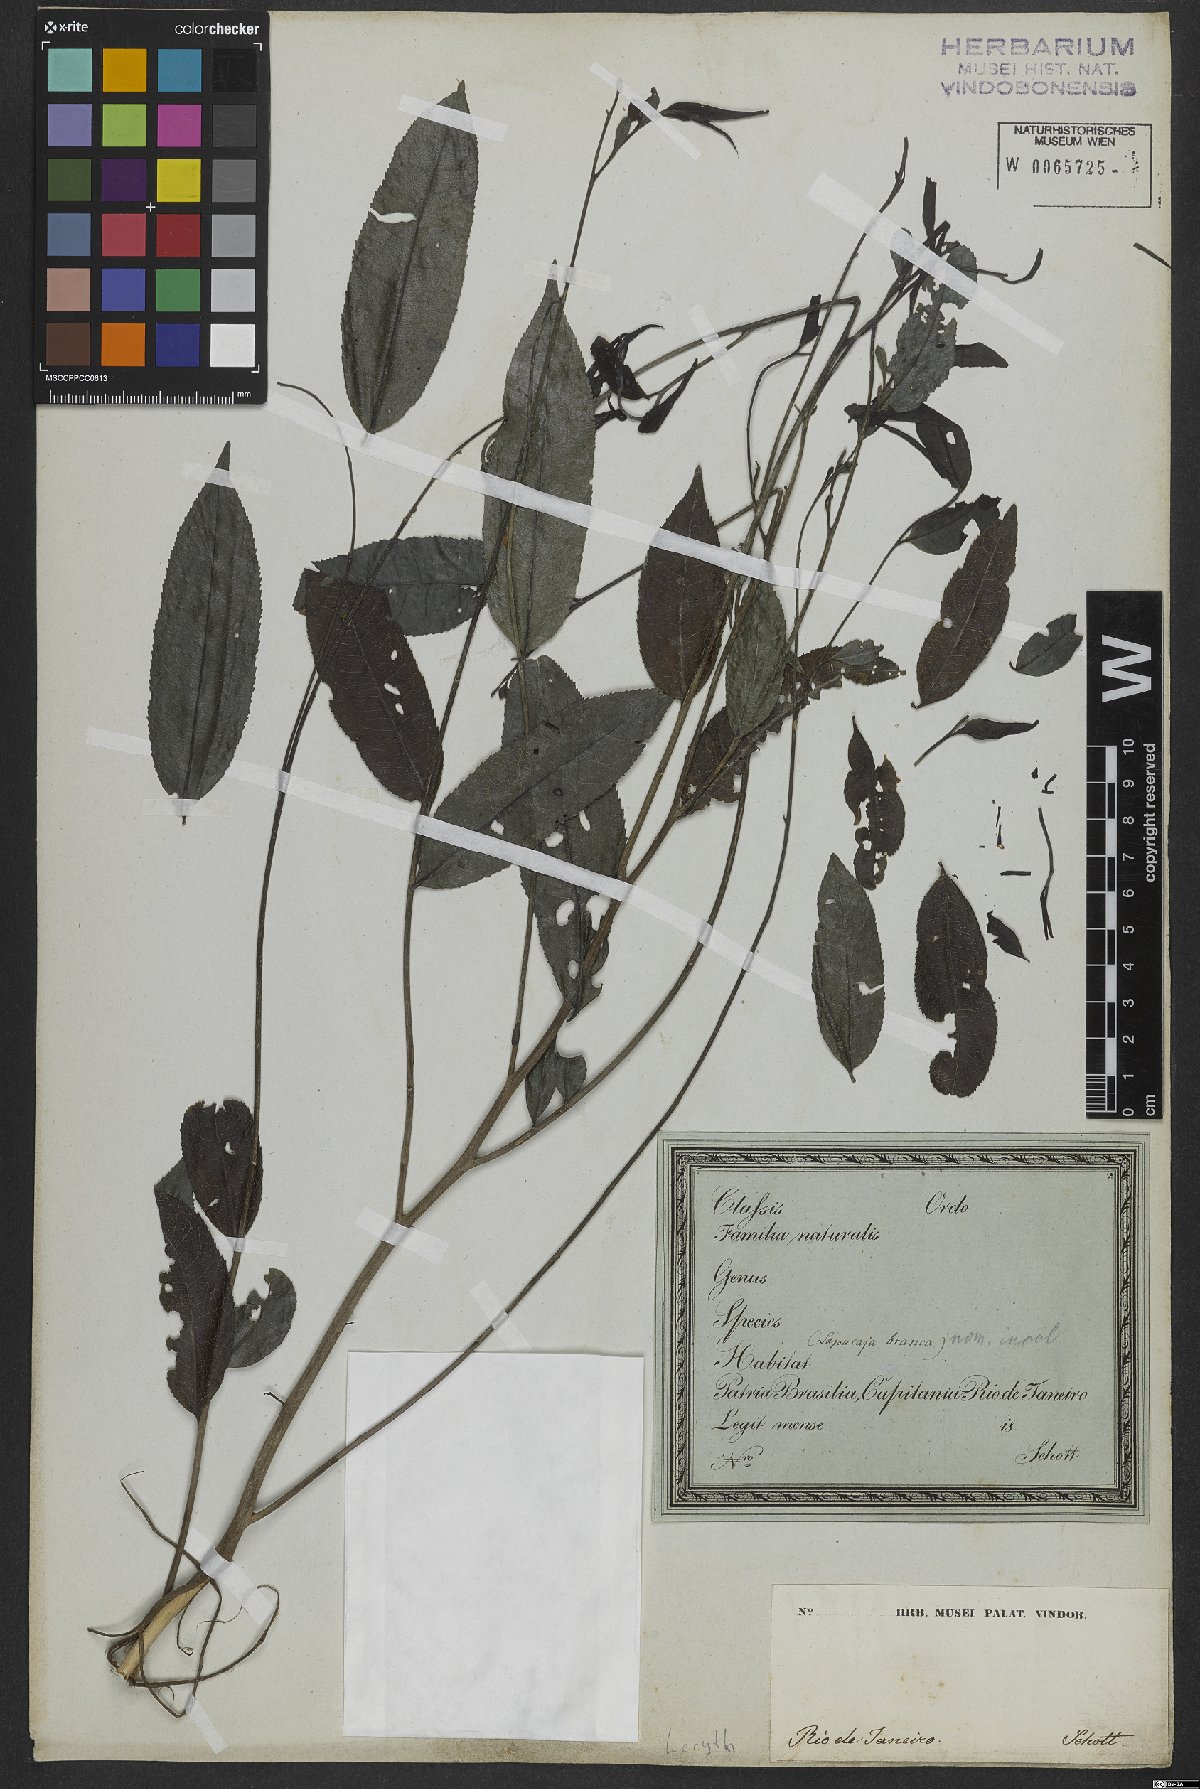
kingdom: Plantae
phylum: Tracheophyta
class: Magnoliopsida
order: Ericales
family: Lecythidaceae
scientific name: Lecythidaceae
